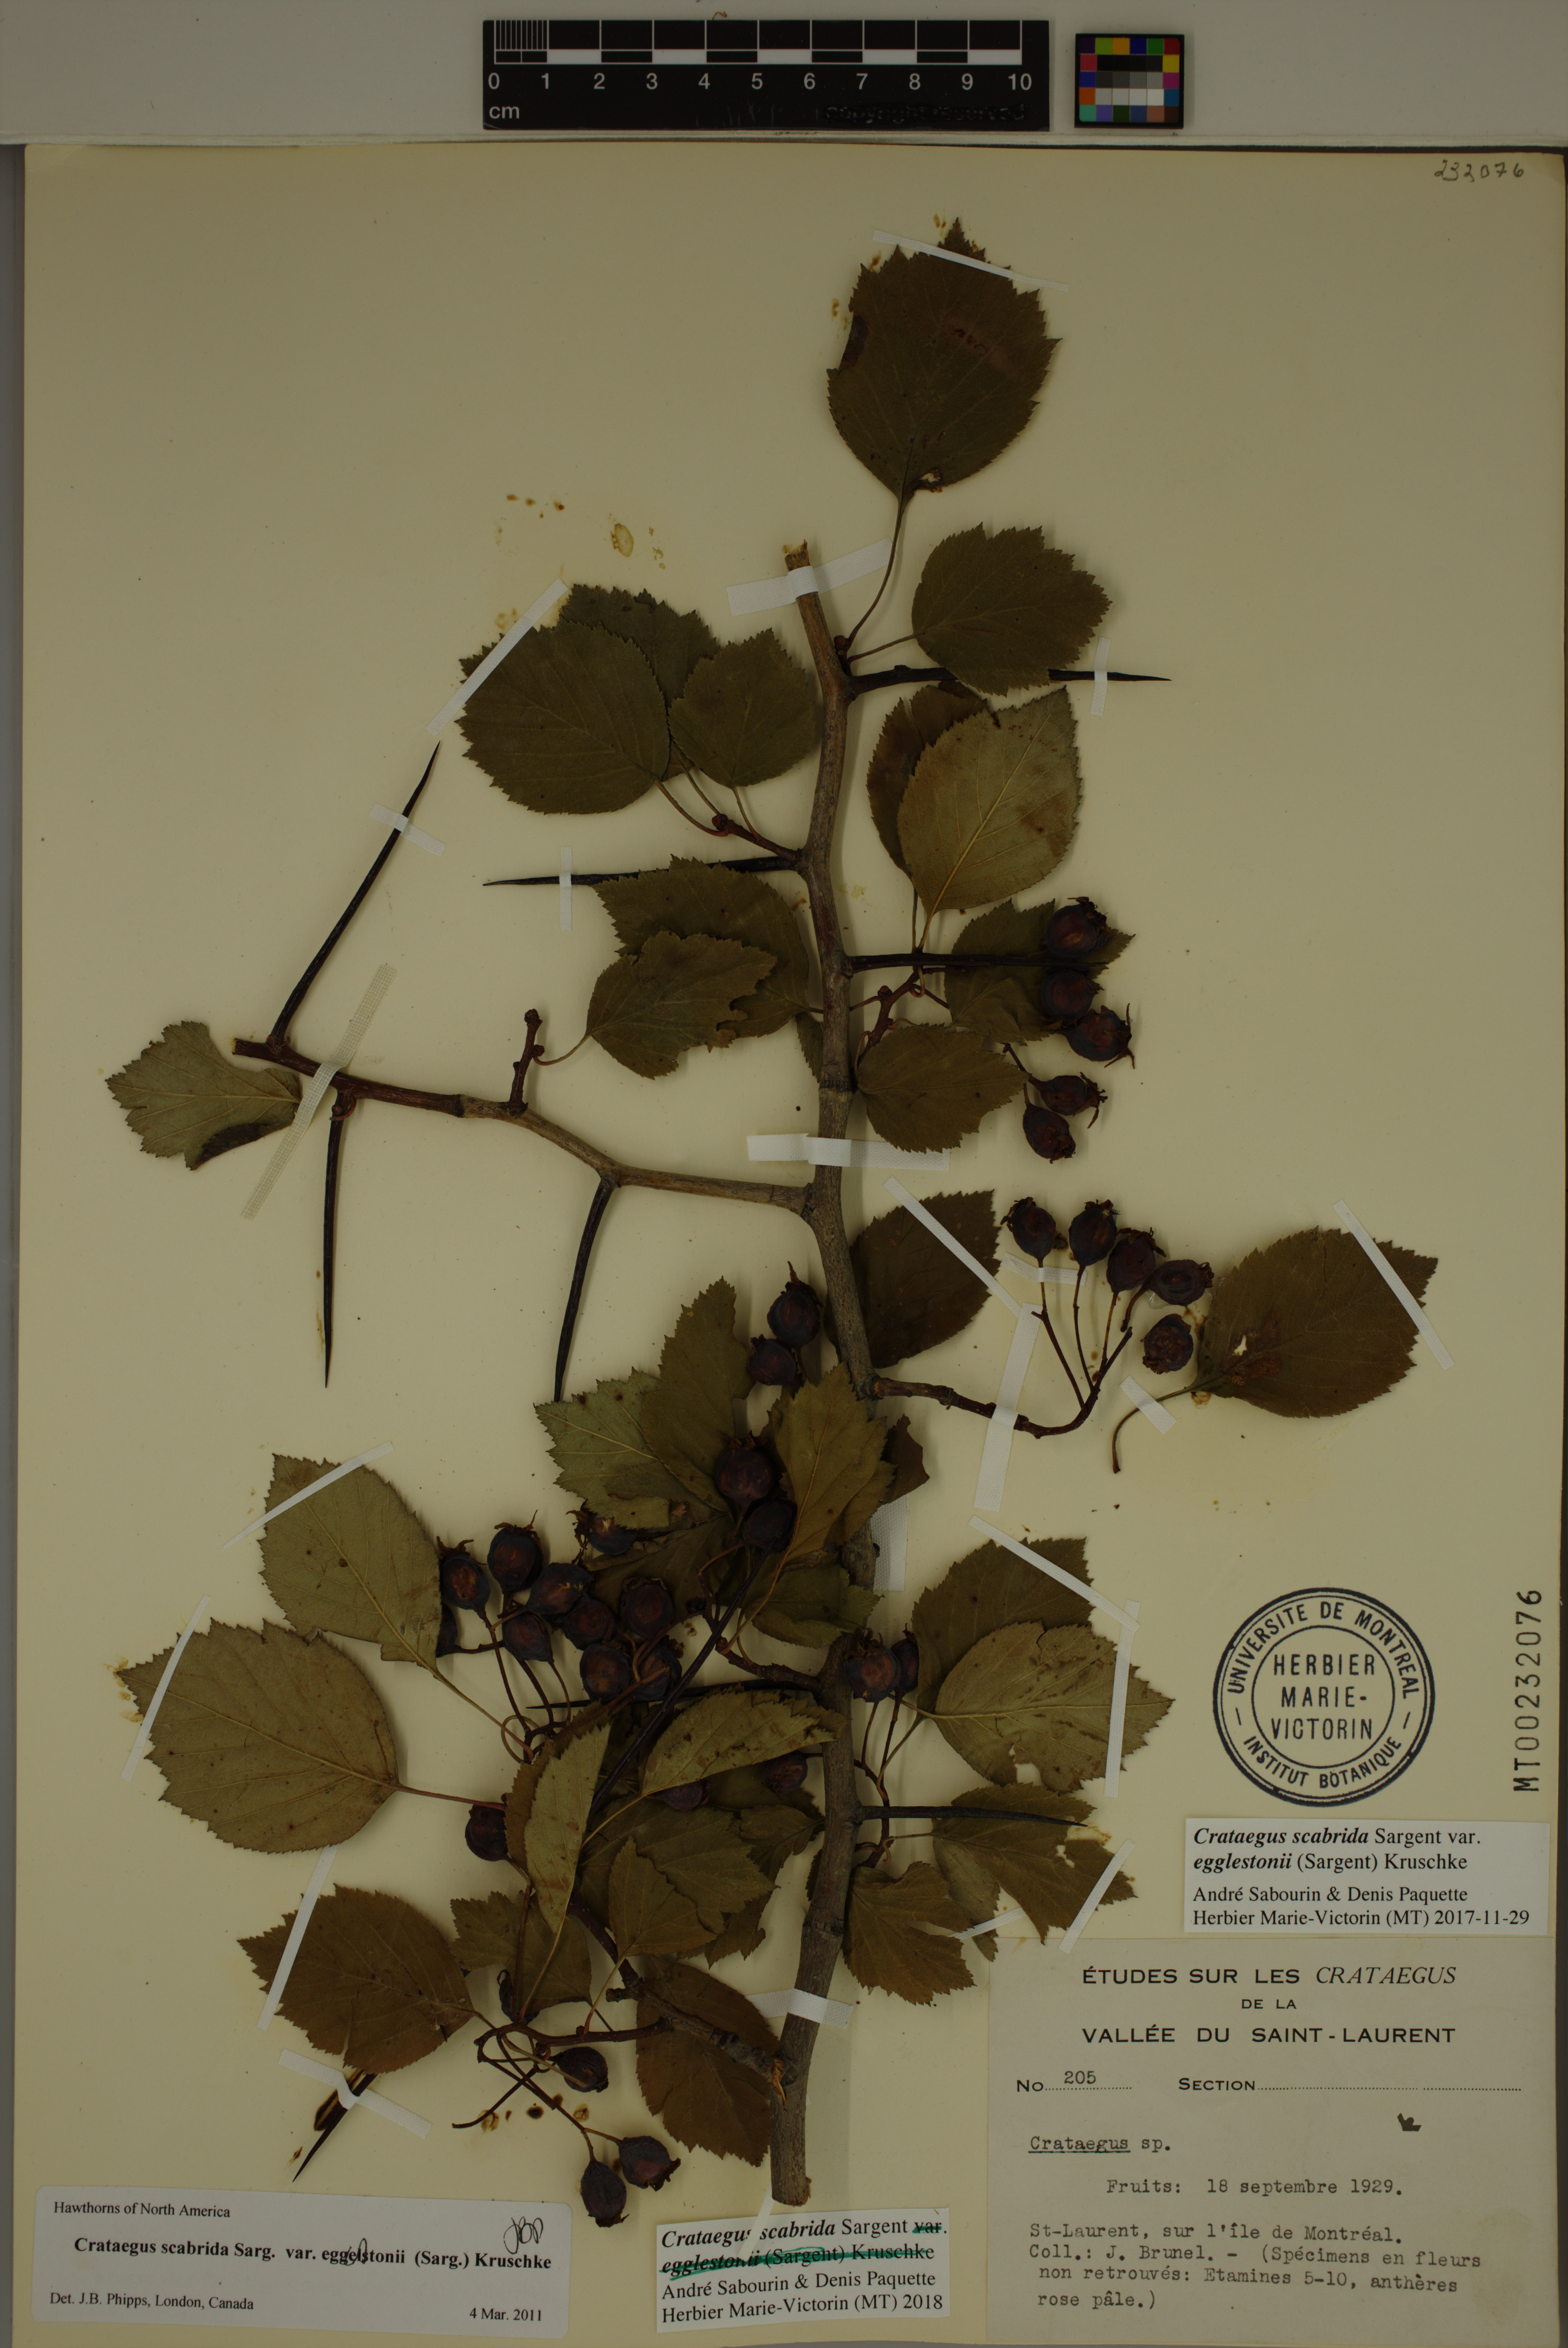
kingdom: Plantae
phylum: Tracheophyta
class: Magnoliopsida
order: Rosales
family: Rosaceae
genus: Crataegus
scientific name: Crataegus scabrida
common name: Rough hawthorn
